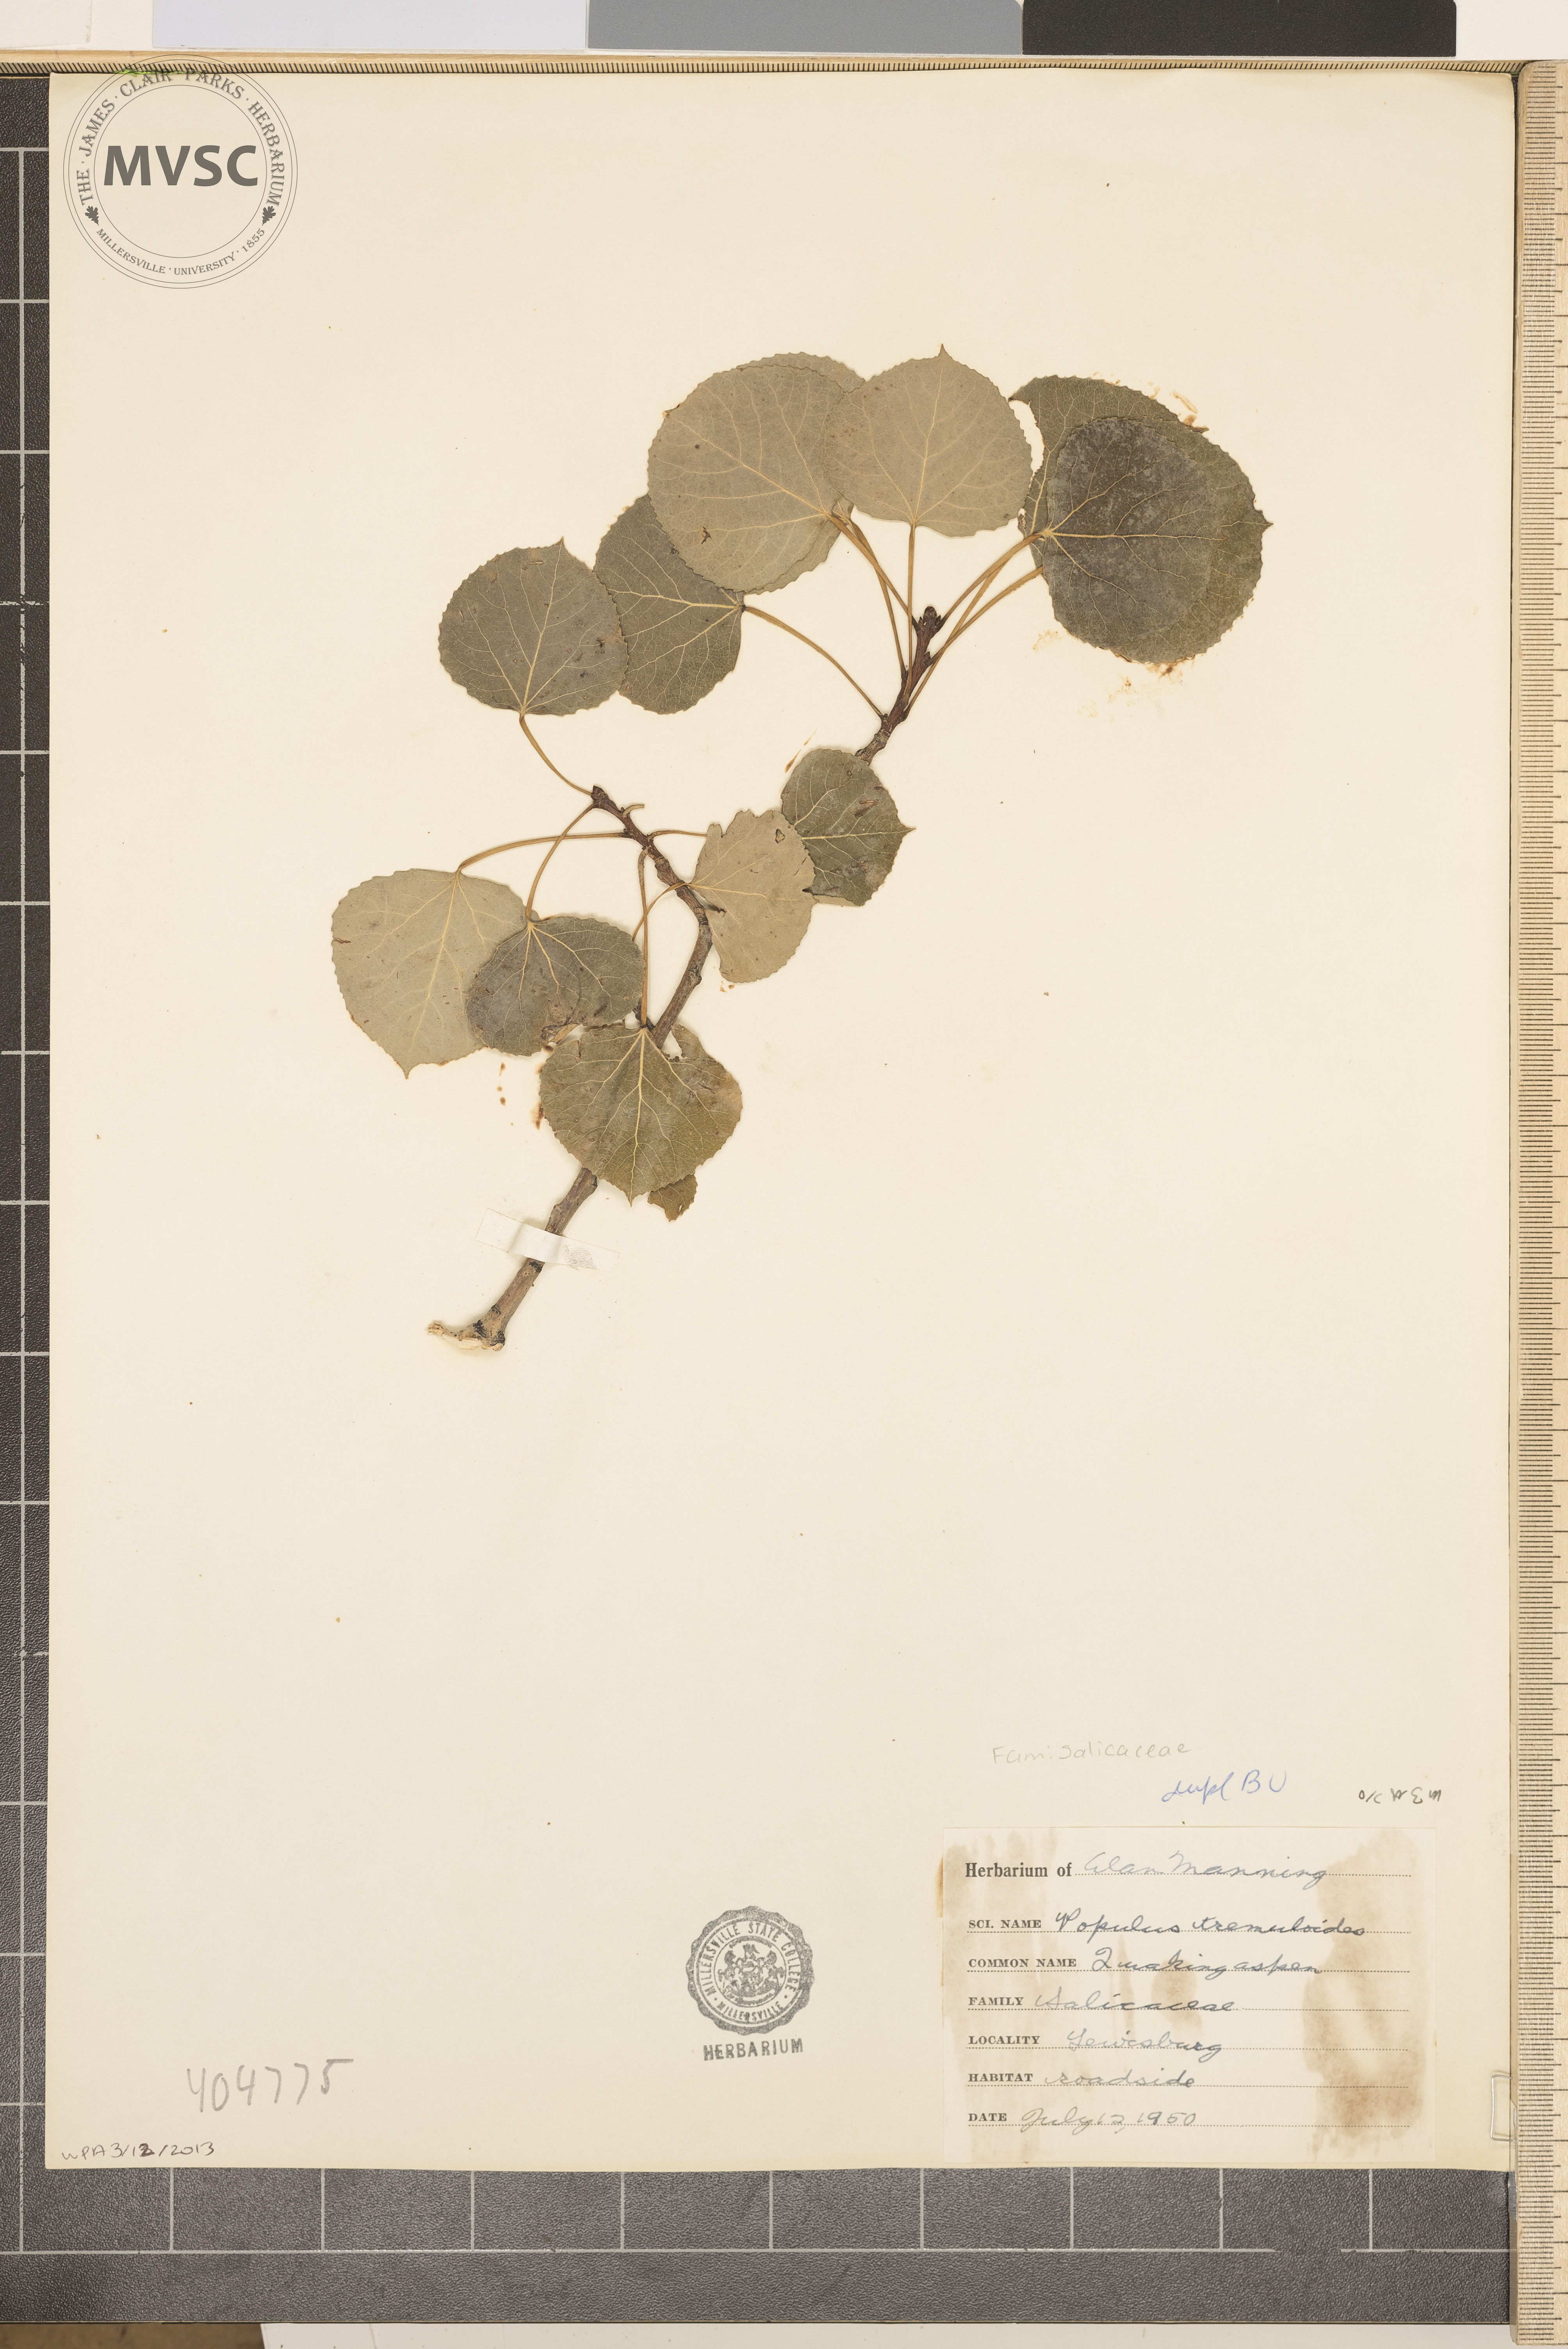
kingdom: Plantae
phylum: Tracheophyta
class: Magnoliopsida
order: Malpighiales
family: Salicaceae
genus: Populus
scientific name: Populus tremuloides
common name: Quaking aspen
